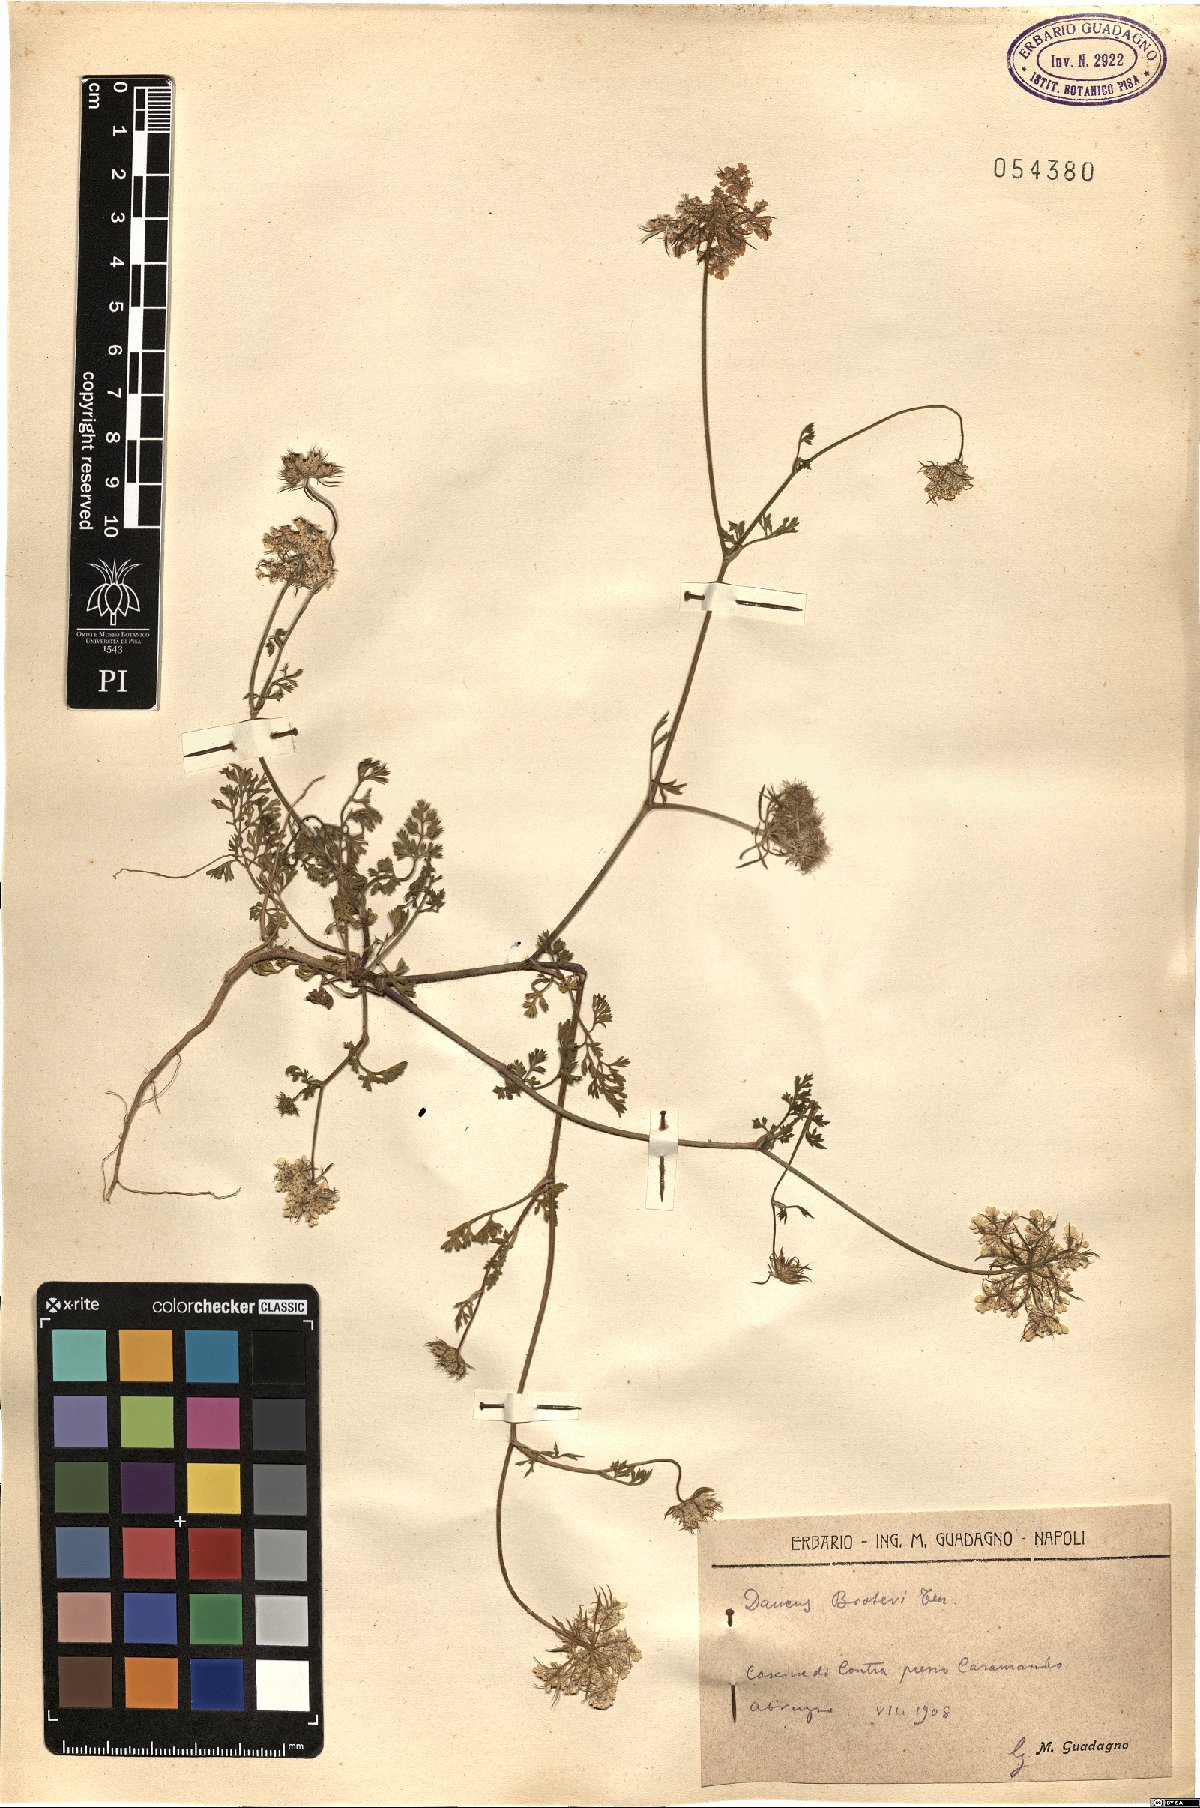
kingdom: Plantae
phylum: Tracheophyta
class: Magnoliopsida
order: Apiales
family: Apiaceae
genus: Daucus
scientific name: Daucus broteroi
